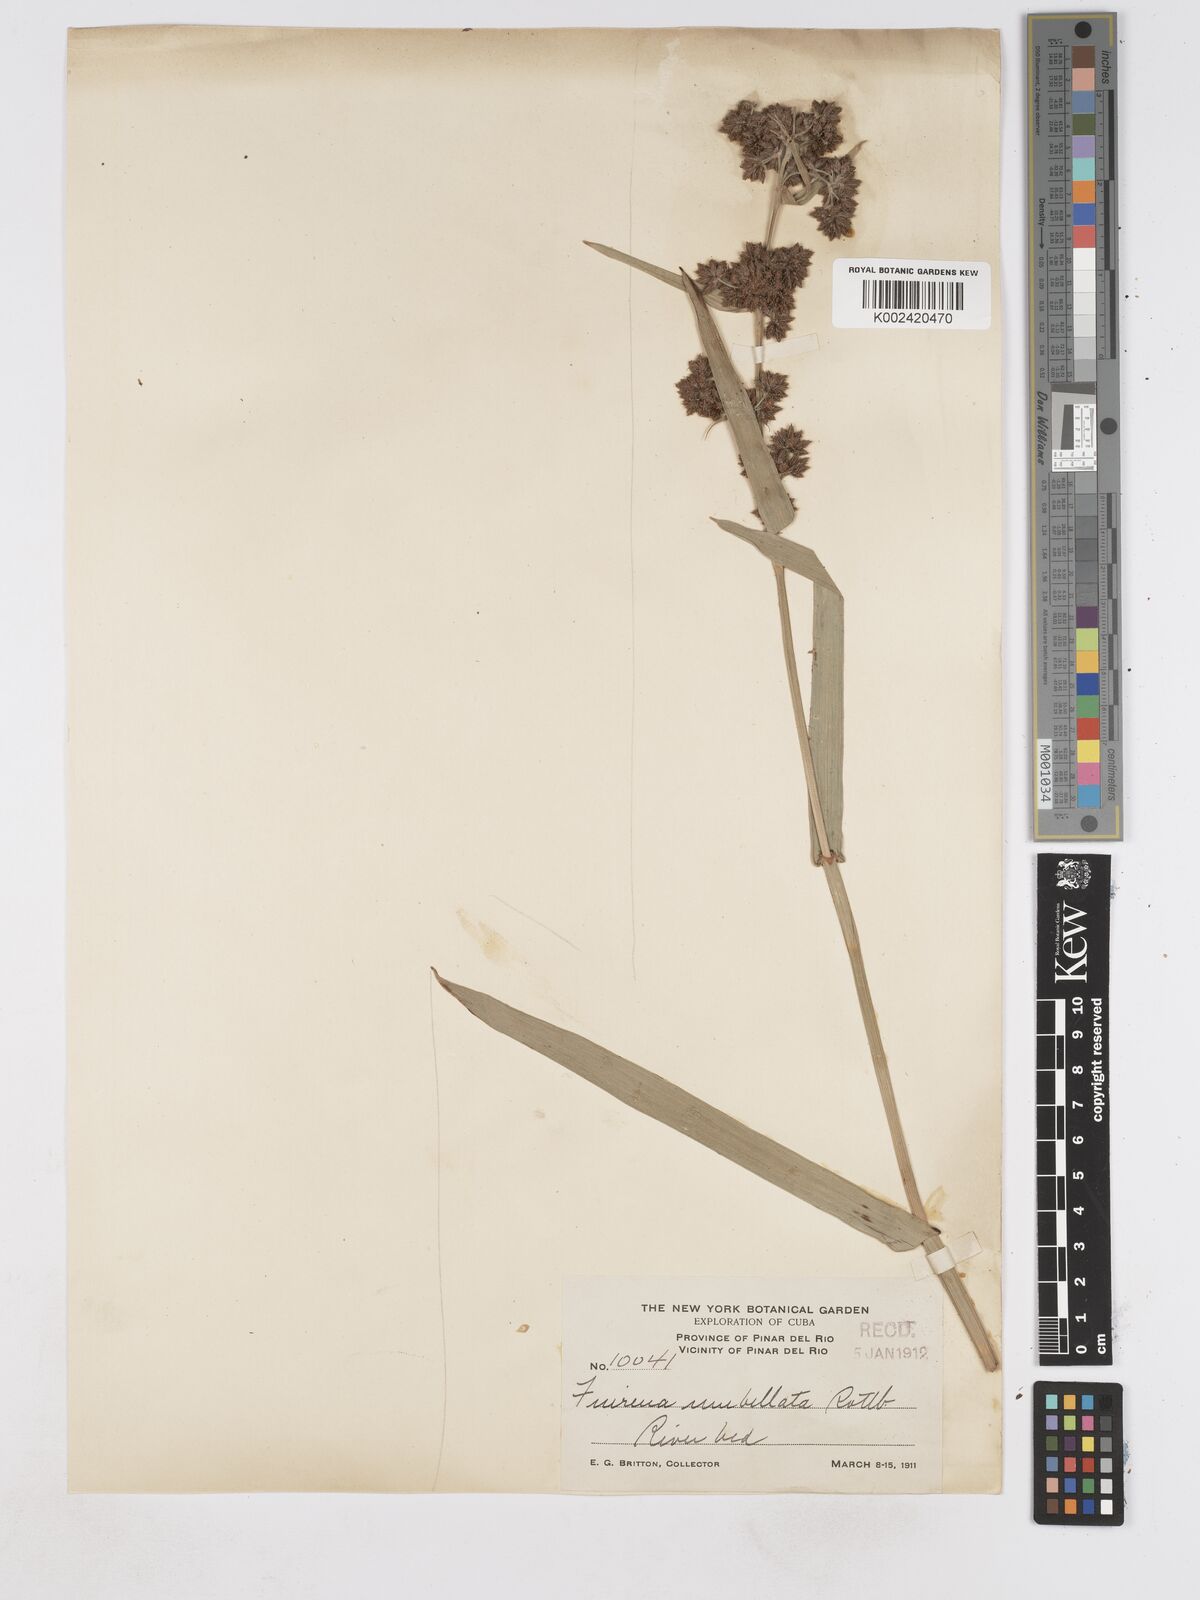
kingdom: Plantae
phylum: Tracheophyta
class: Liliopsida
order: Poales
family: Cyperaceae
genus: Fuirena
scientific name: Fuirena umbellata
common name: Yefen
